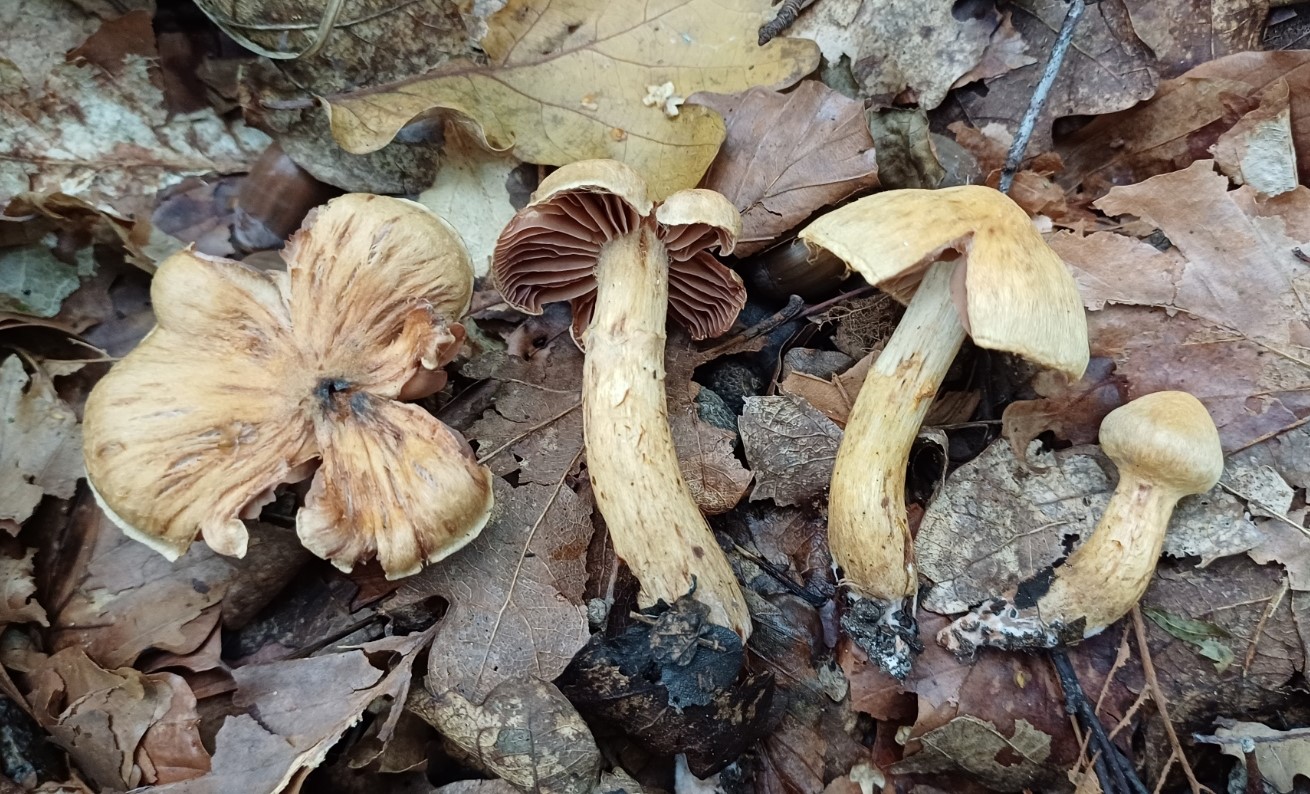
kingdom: Fungi
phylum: Basidiomycota
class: Agaricomycetes
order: Agaricales
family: Cortinariaceae
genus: Cortinarius
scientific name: Cortinarius
